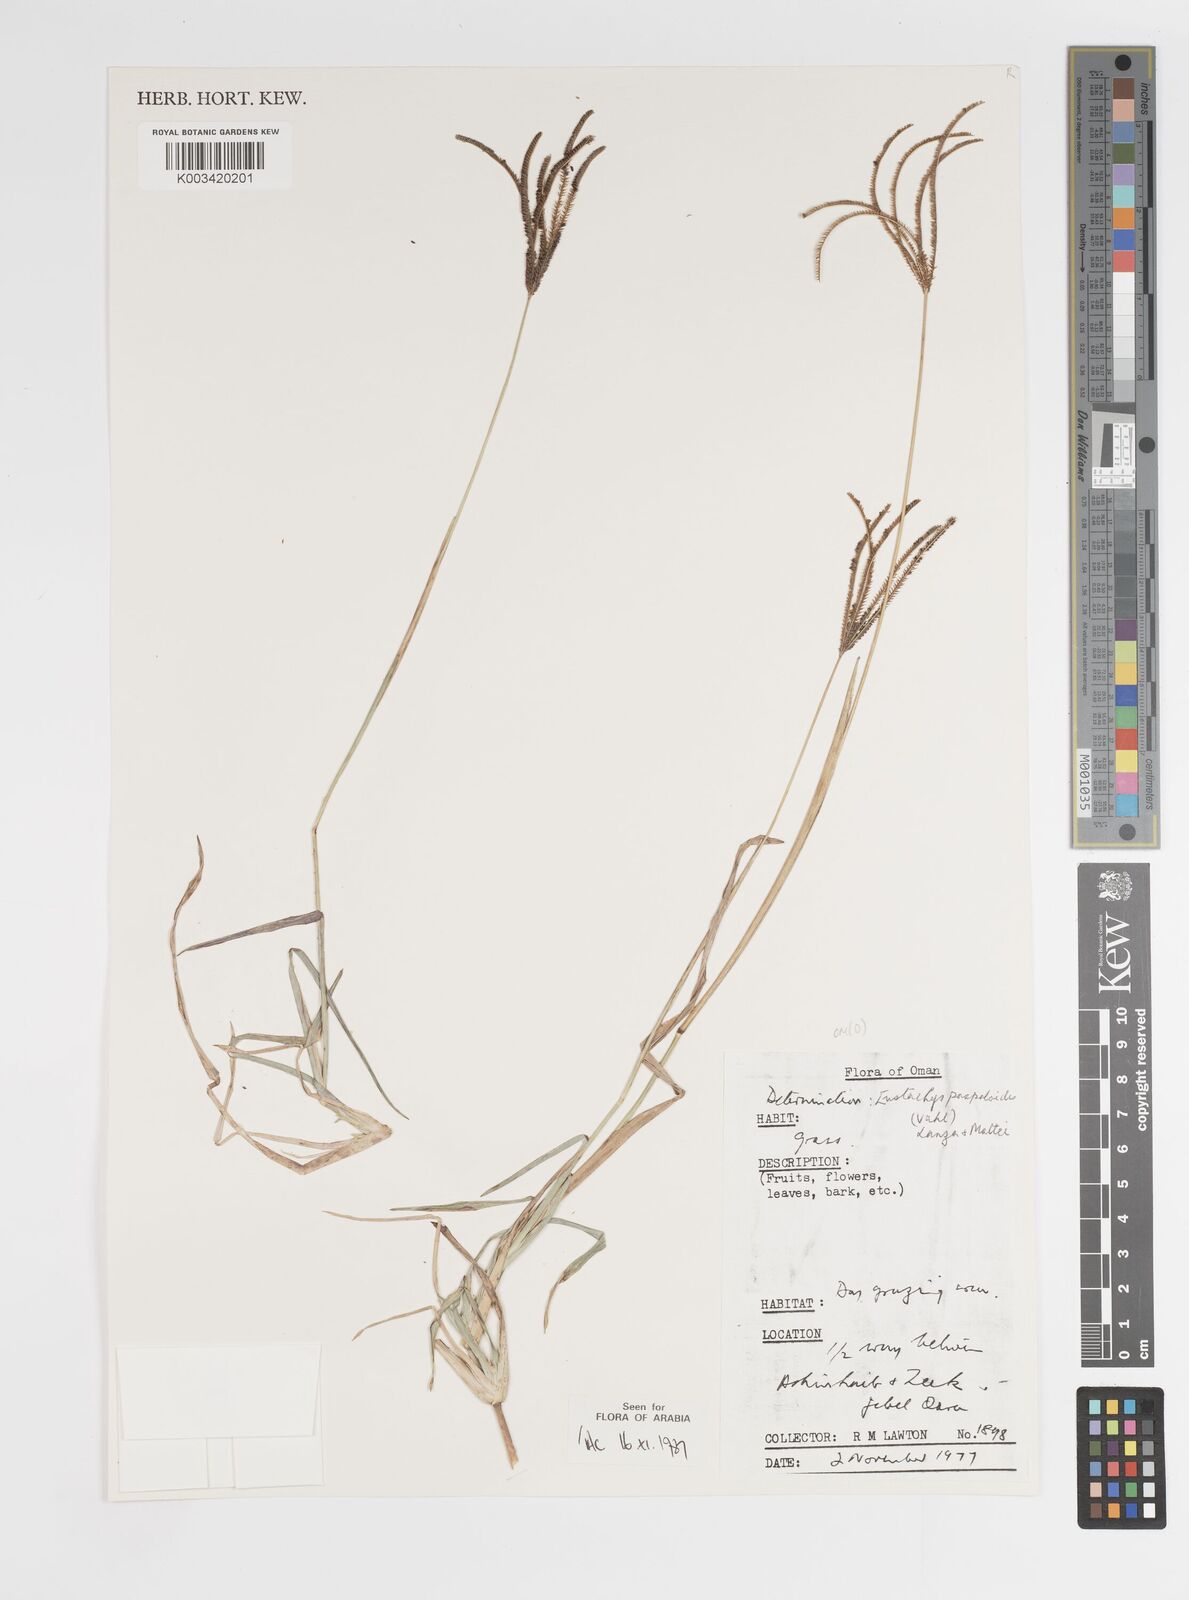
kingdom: Plantae
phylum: Tracheophyta
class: Liliopsida
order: Poales
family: Poaceae
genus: Eustachys
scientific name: Eustachys paspaloides
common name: Caribbean fingergrass
